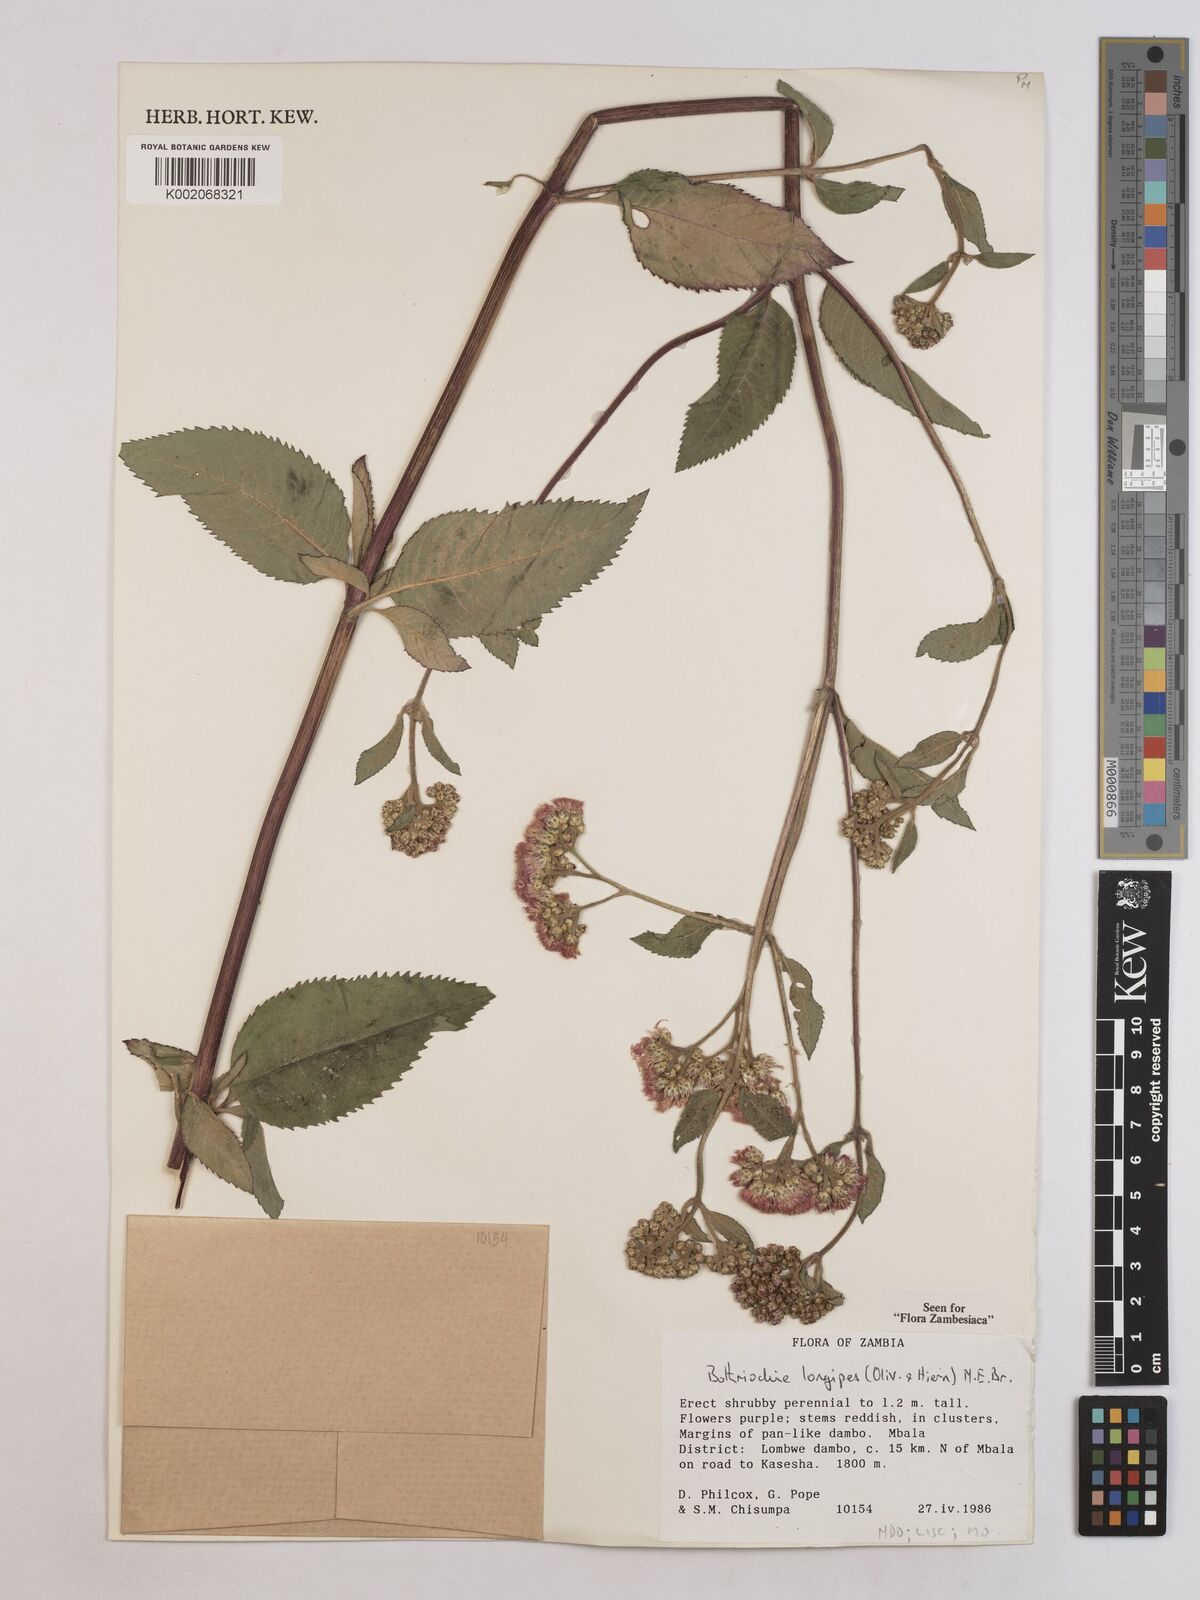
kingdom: Plantae
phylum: Tracheophyta
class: Magnoliopsida
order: Asterales
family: Asteraceae
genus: Bothriocline
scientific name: Bothriocline longipes
